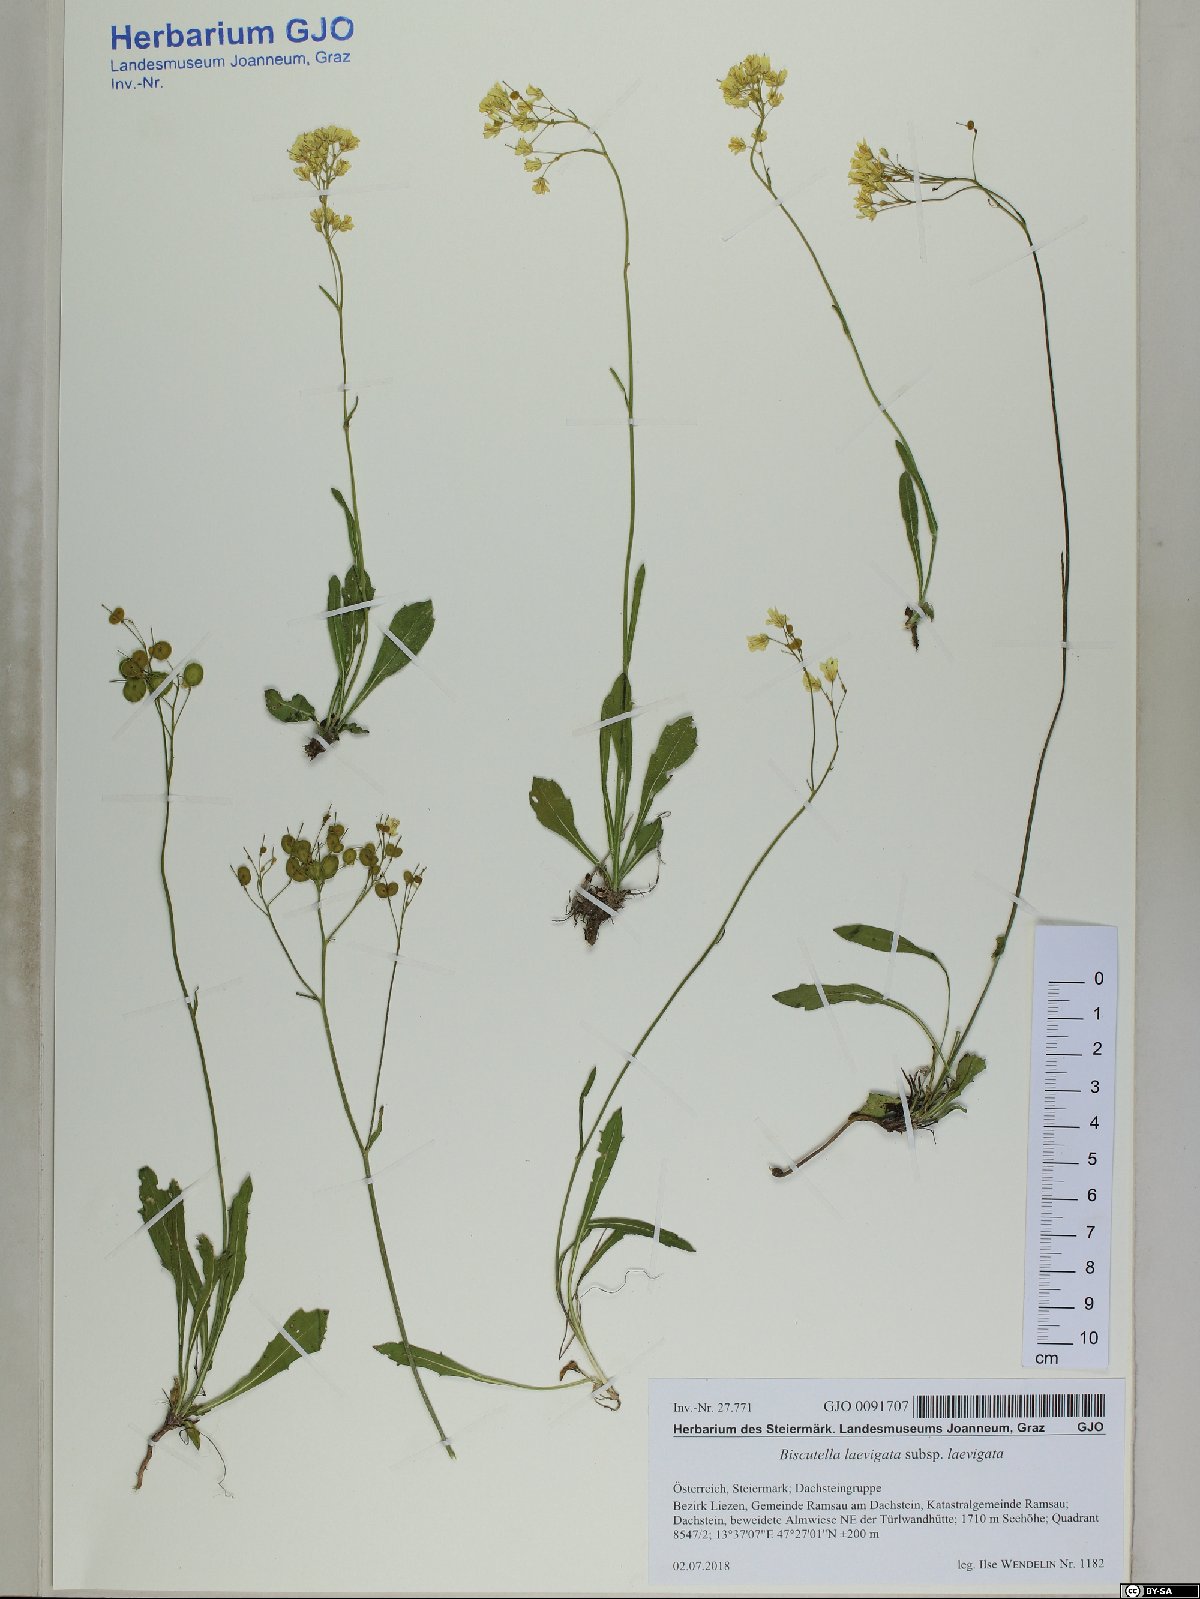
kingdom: Plantae
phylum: Tracheophyta
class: Magnoliopsida
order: Brassicales
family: Brassicaceae
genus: Biscutella
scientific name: Biscutella laevigata
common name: Buckler mustard
